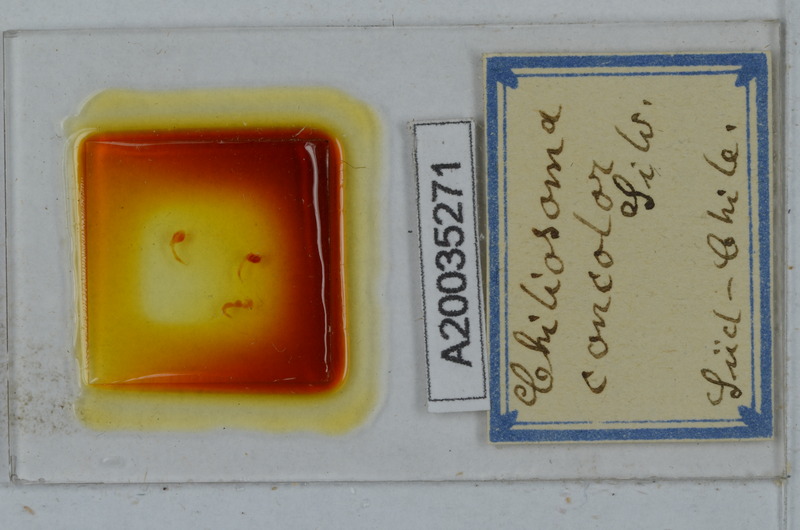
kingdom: Animalia
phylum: Arthropoda
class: Diplopoda
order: Polydesmida
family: Dalodesmidae
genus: Tsagonus
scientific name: Tsagonus muermo
